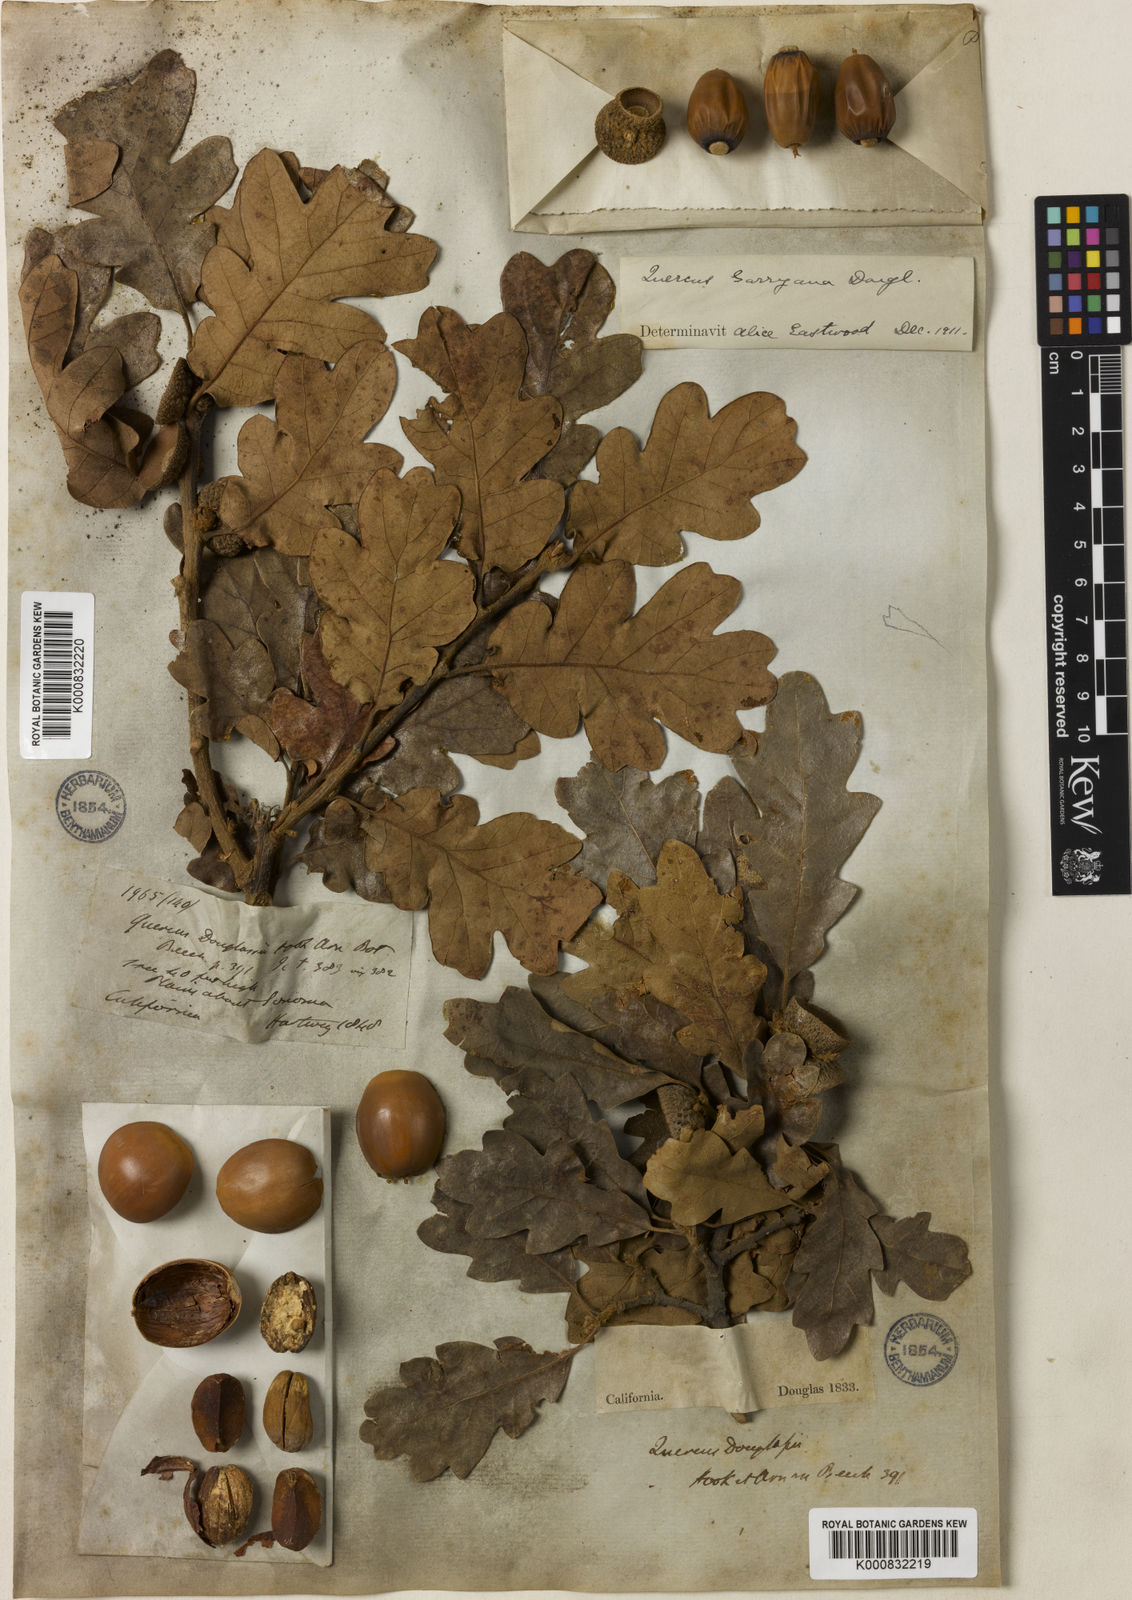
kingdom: Plantae
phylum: Tracheophyta
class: Magnoliopsida
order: Fagales
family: Fagaceae
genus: Quercus
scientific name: Quercus garryana
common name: Garry oak
